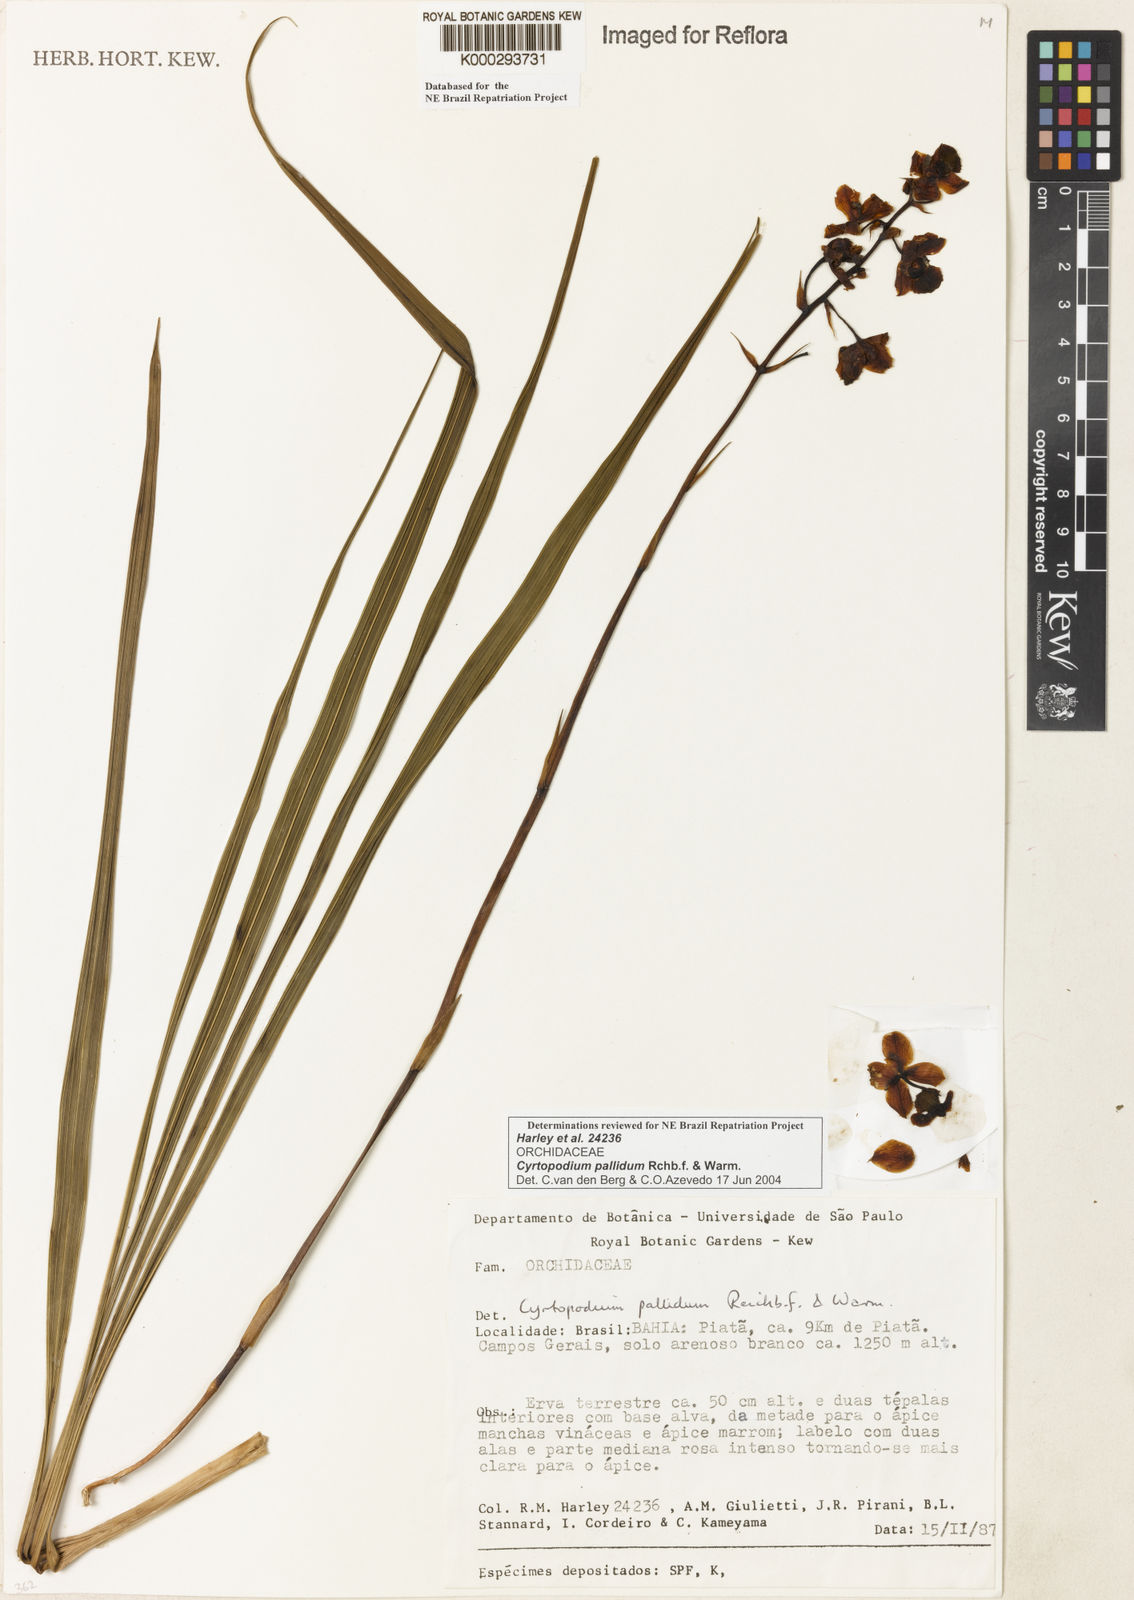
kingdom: Plantae
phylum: Tracheophyta
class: Liliopsida
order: Asparagales
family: Orchidaceae
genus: Cyrtopodium
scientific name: Cyrtopodium pallidum
